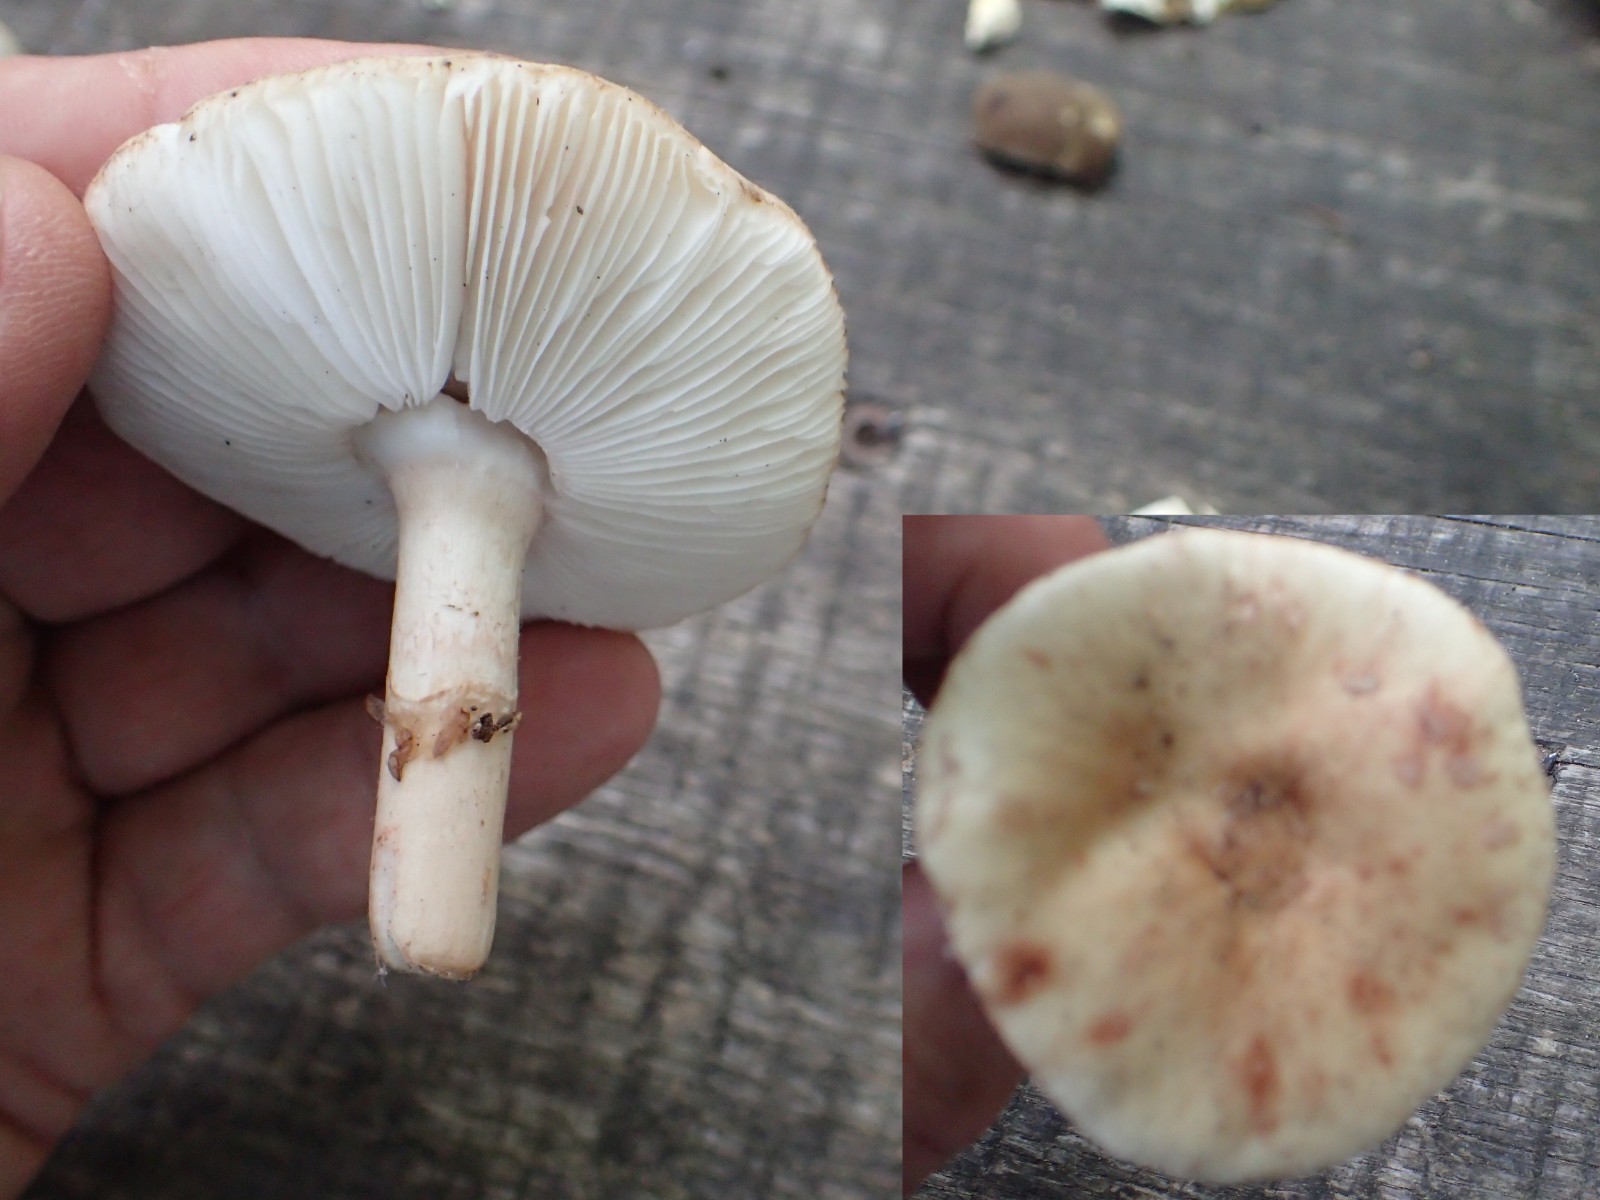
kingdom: Fungi
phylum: Basidiomycota
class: Agaricomycetes
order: Agaricales
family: Amanitaceae
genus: Amanita
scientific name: Amanita porphyria
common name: porfyr-fluesvamp
